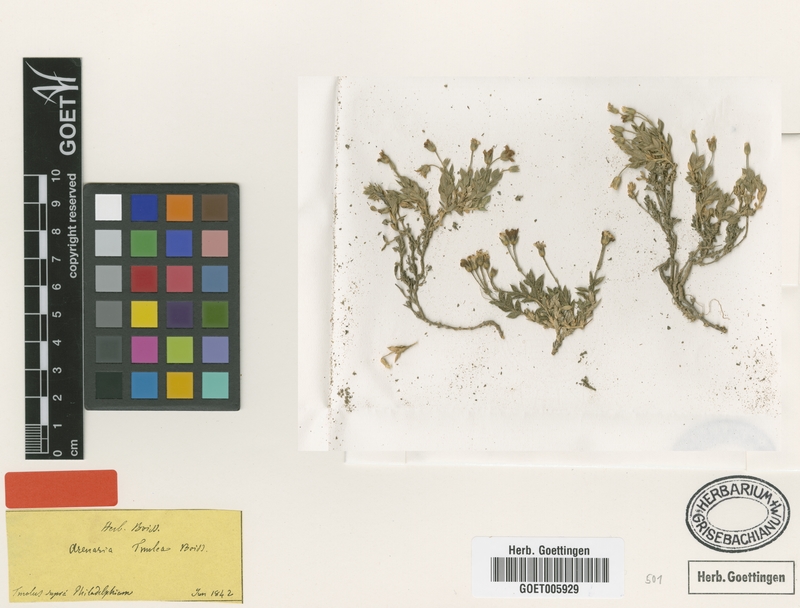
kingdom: Plantae
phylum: Tracheophyta
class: Magnoliopsida
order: Caryophyllales
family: Caryophyllaceae
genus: Arenaria
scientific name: Arenaria tmolea
